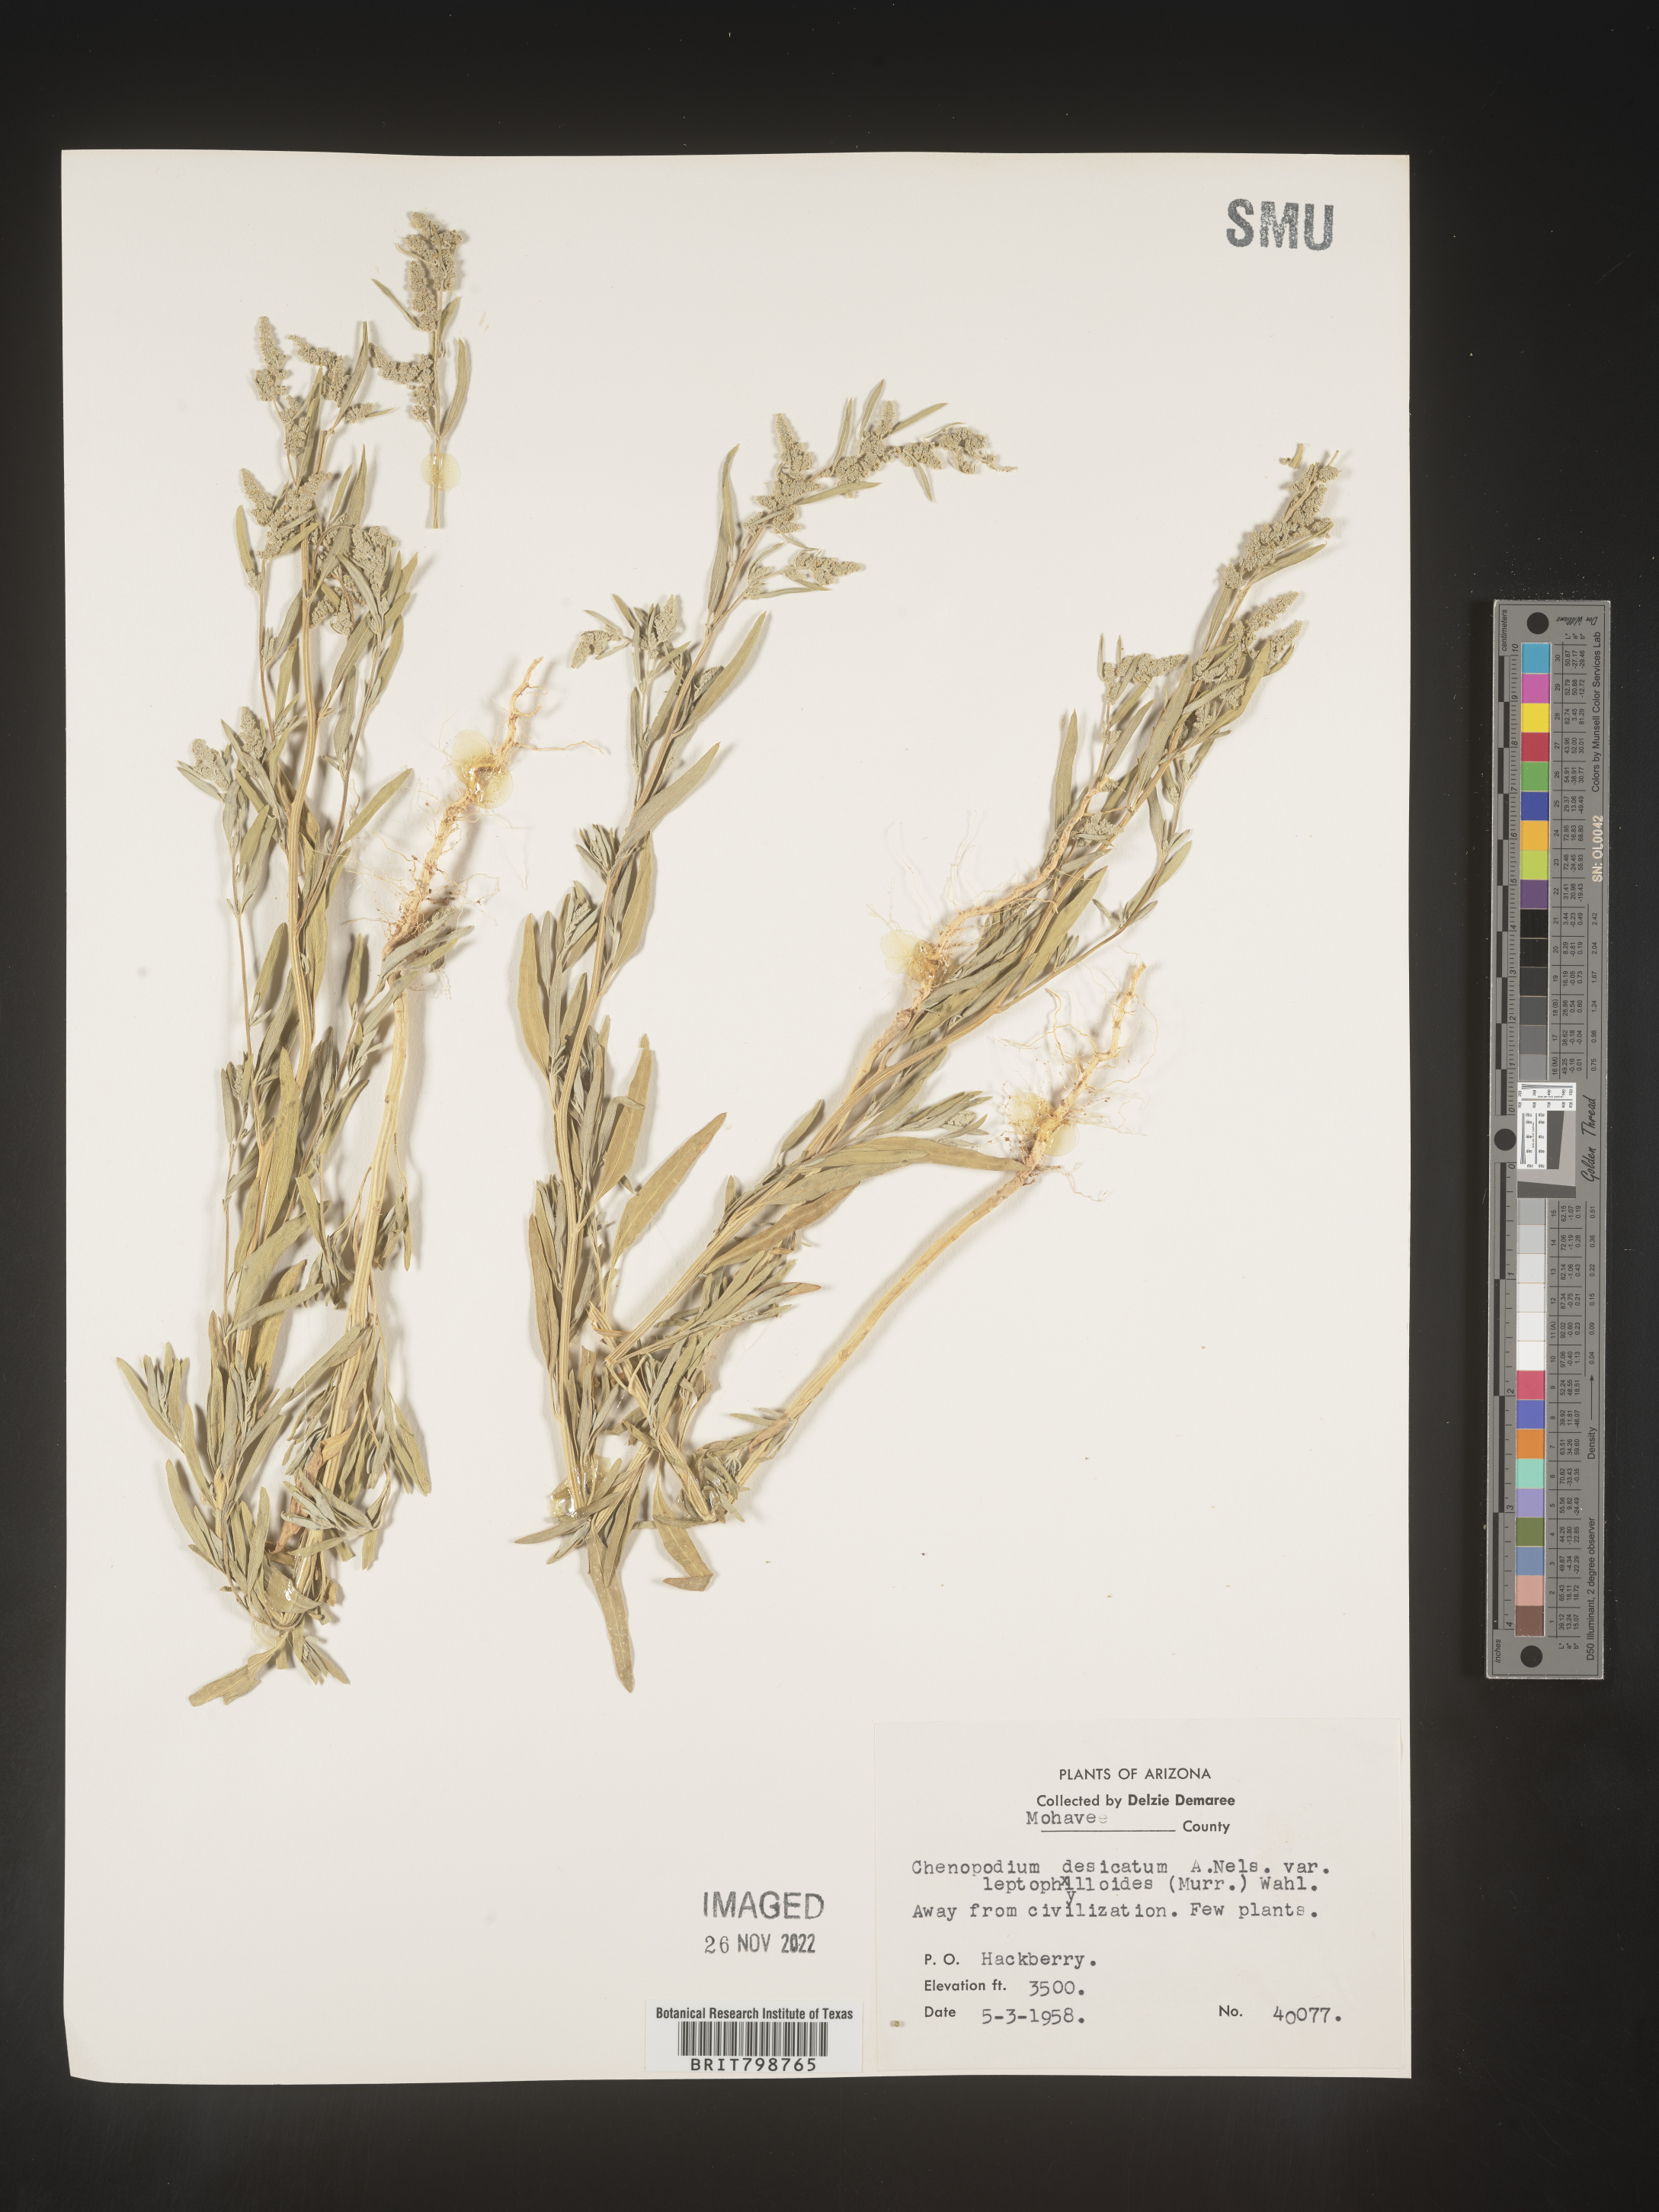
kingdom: Plantae
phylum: Tracheophyta
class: Magnoliopsida
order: Caryophyllales
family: Amaranthaceae
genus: Chenopodium
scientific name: Chenopodium desiccatum
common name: Slimleaf goosefoot
